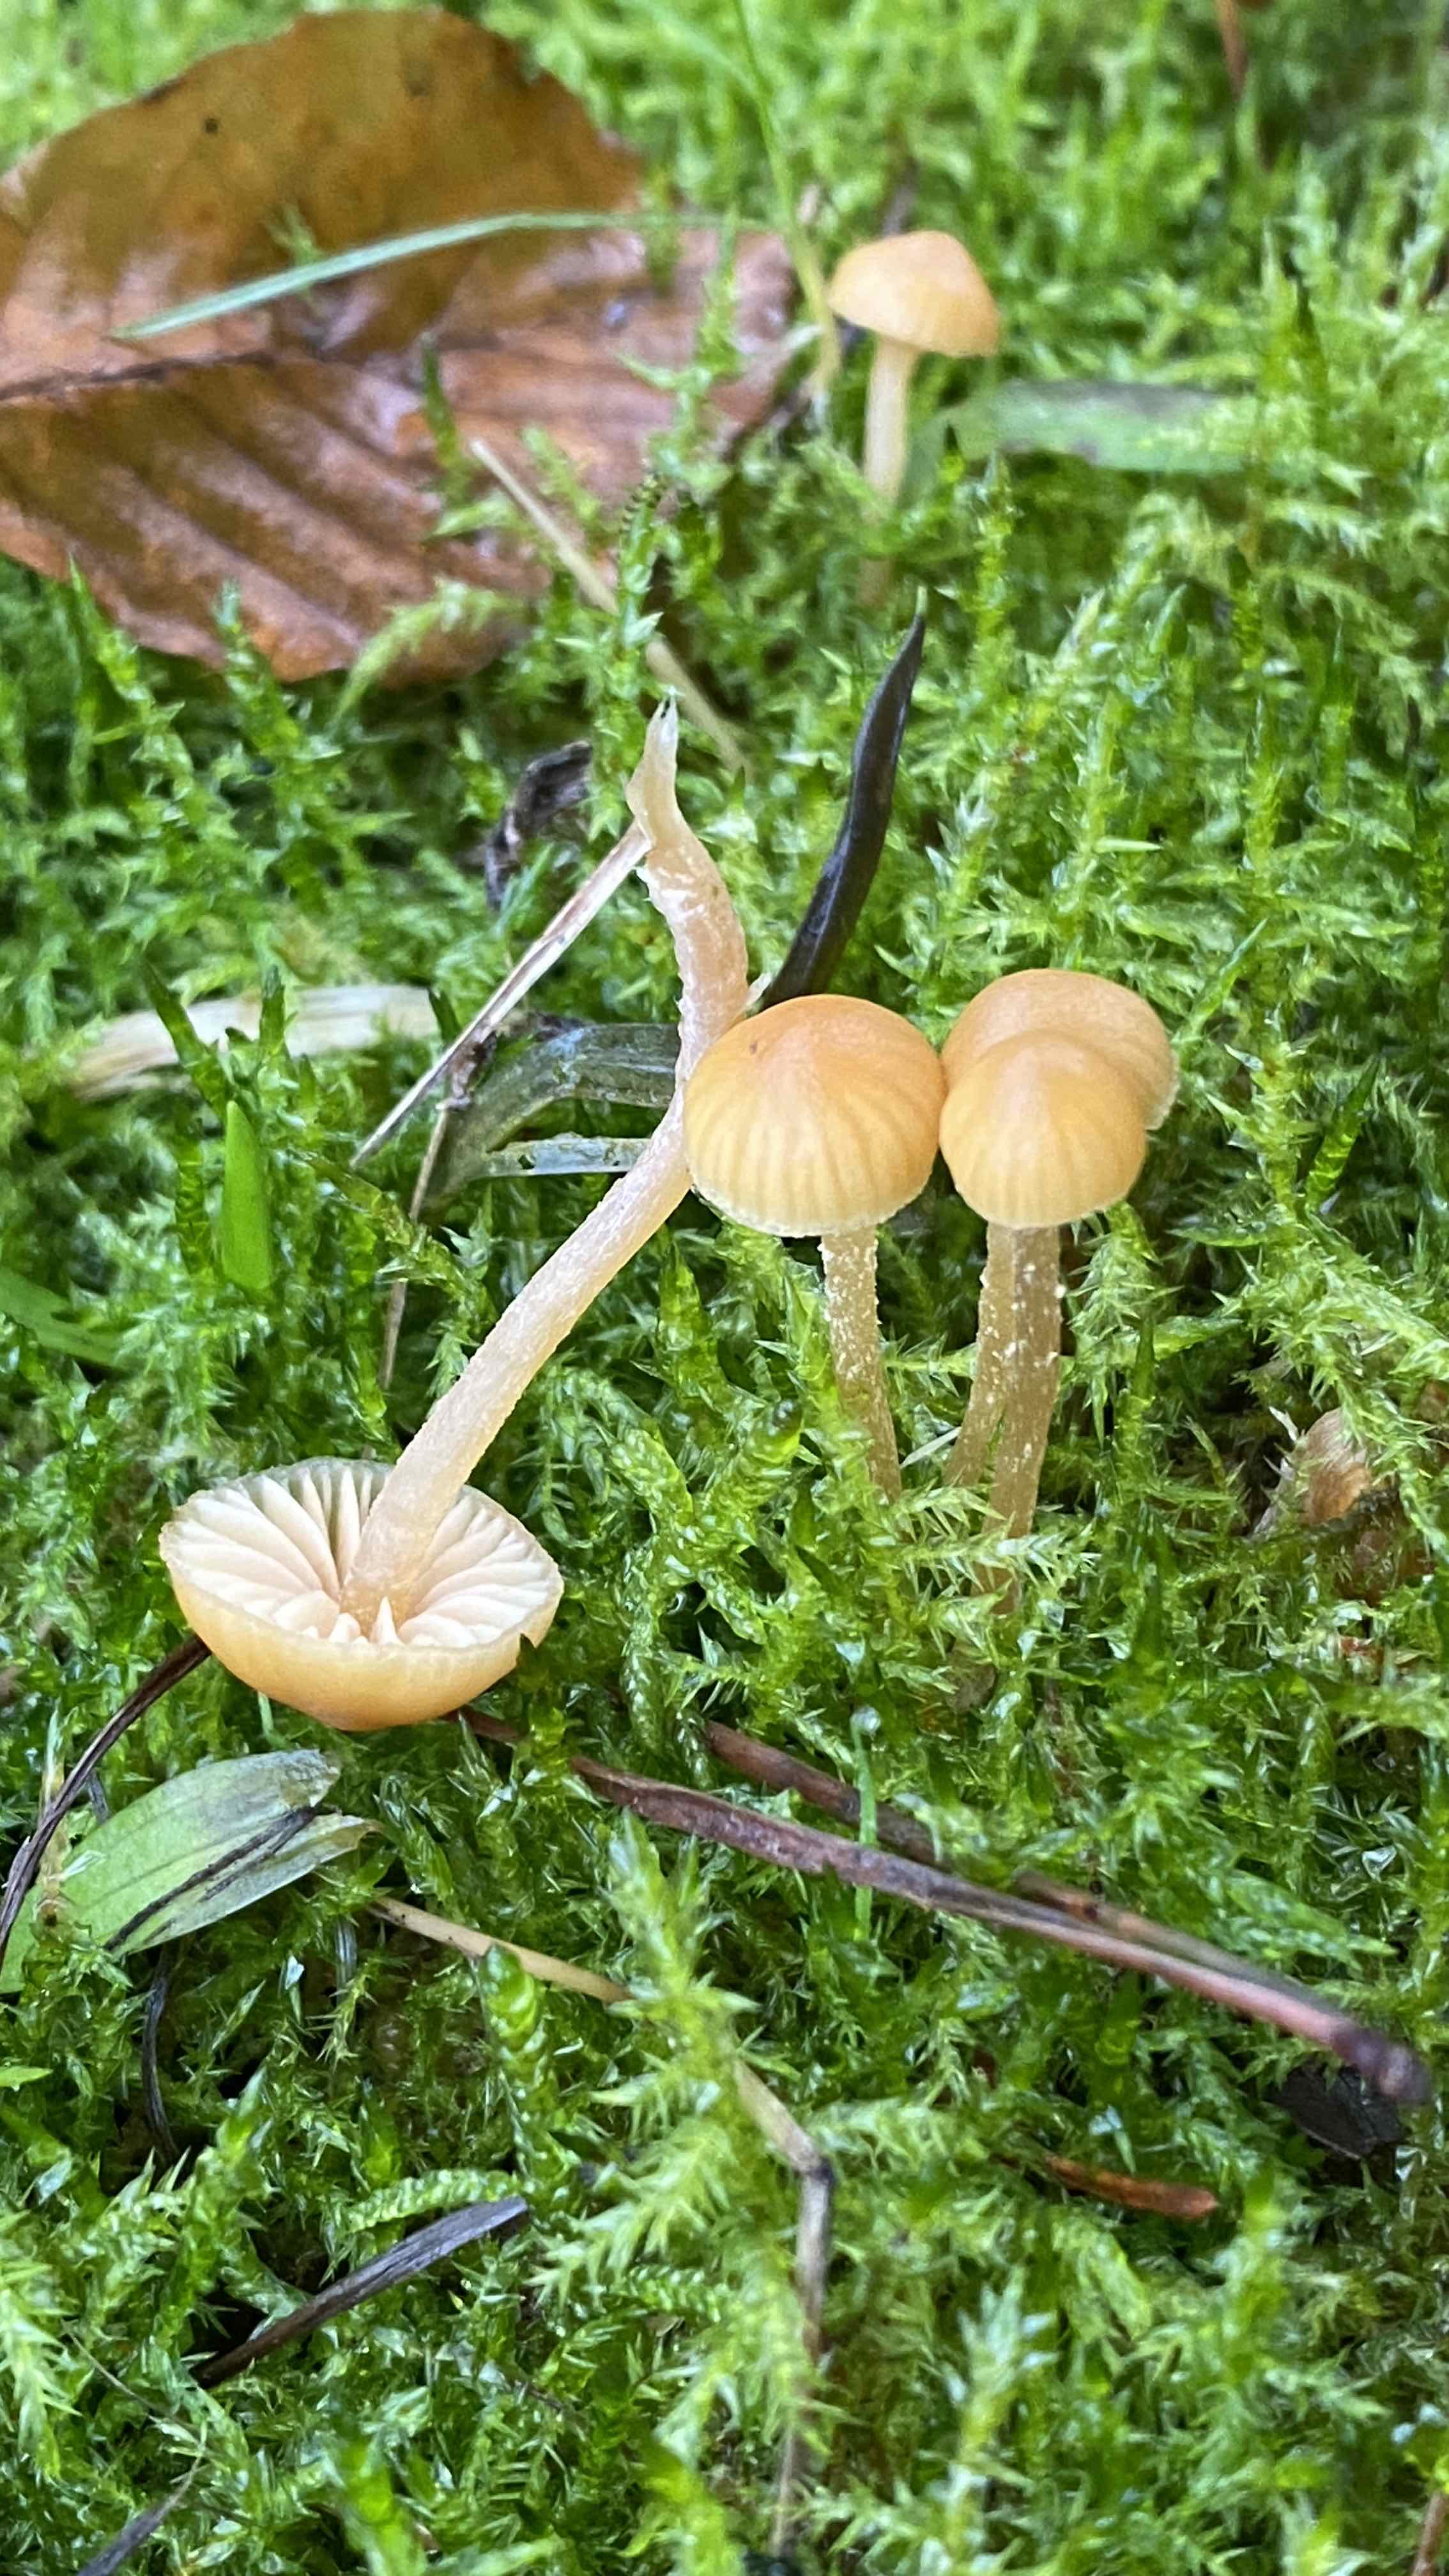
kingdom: Fungi
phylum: Basidiomycota
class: Agaricomycetes
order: Agaricales
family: Hymenogastraceae
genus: Galerina
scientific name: Galerina
